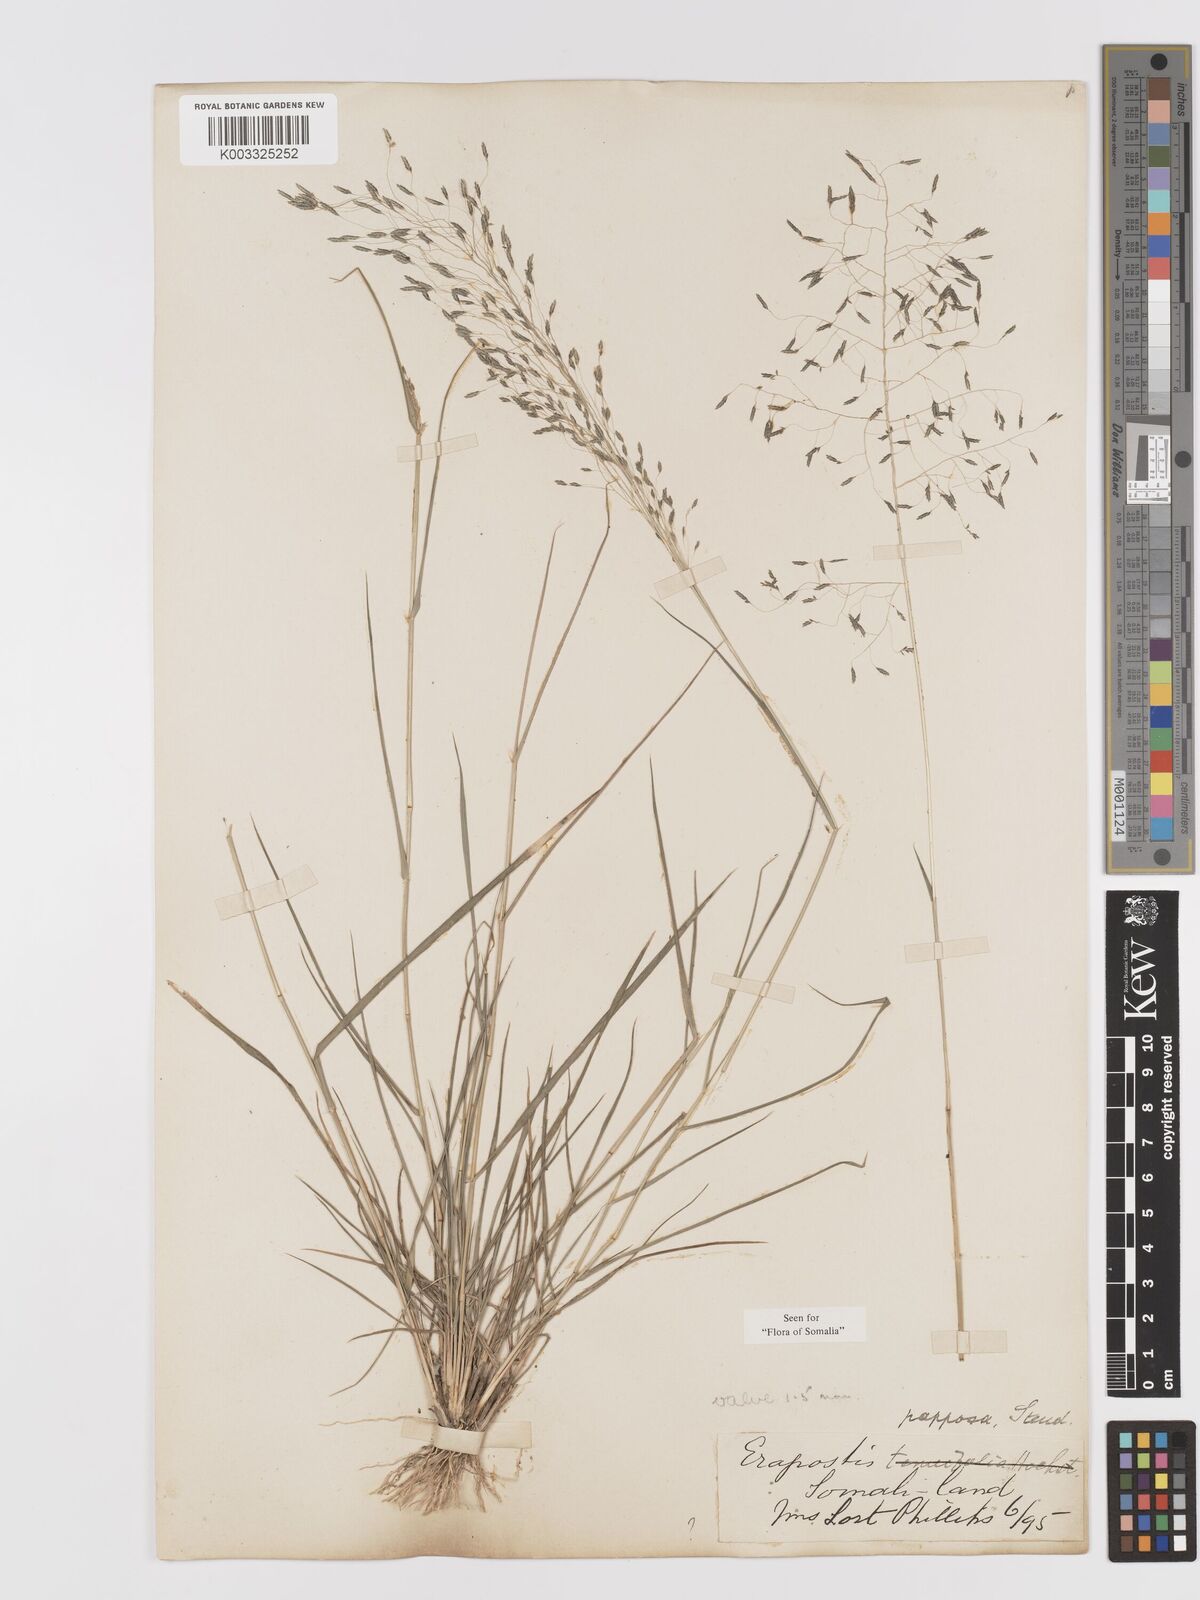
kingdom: Plantae
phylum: Tracheophyta
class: Liliopsida
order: Poales
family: Poaceae
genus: Eragrostis
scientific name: Eragrostis papposa
